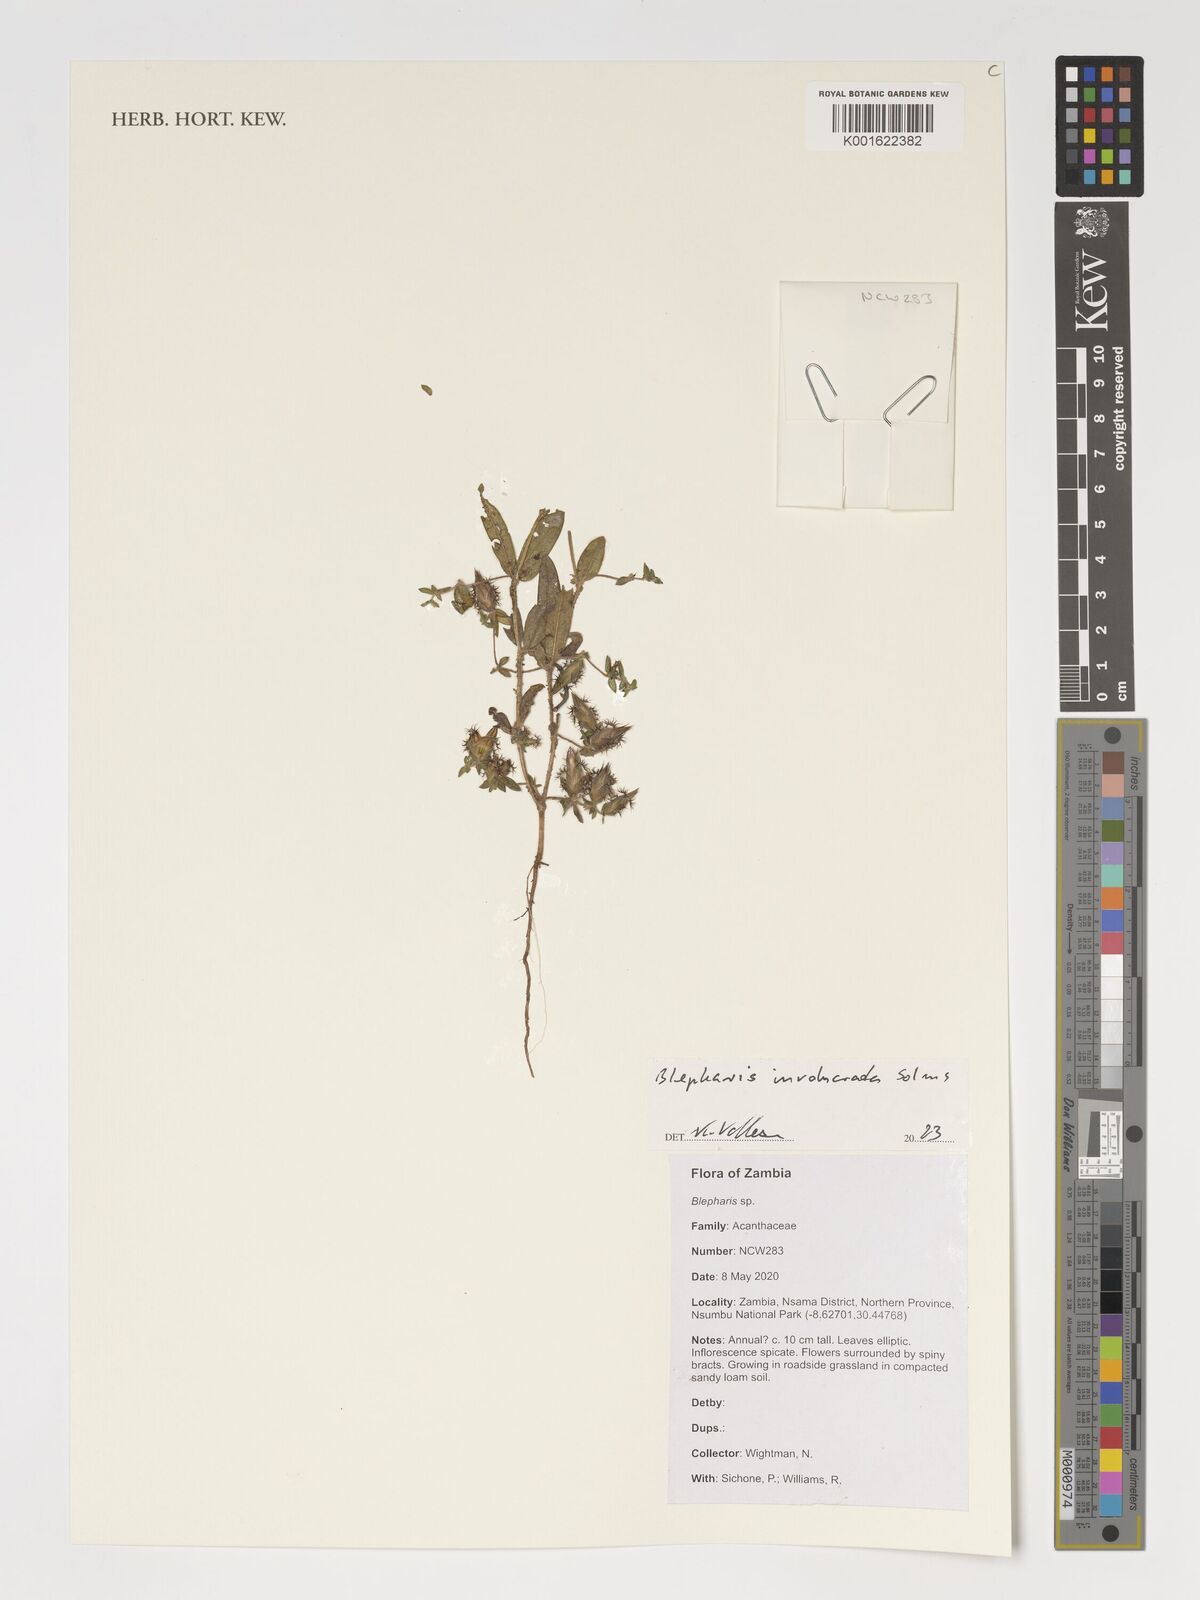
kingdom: Plantae
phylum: Tracheophyta
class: Magnoliopsida
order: Lamiales
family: Acanthaceae
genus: Blepharis
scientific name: Blepharis involucrata
